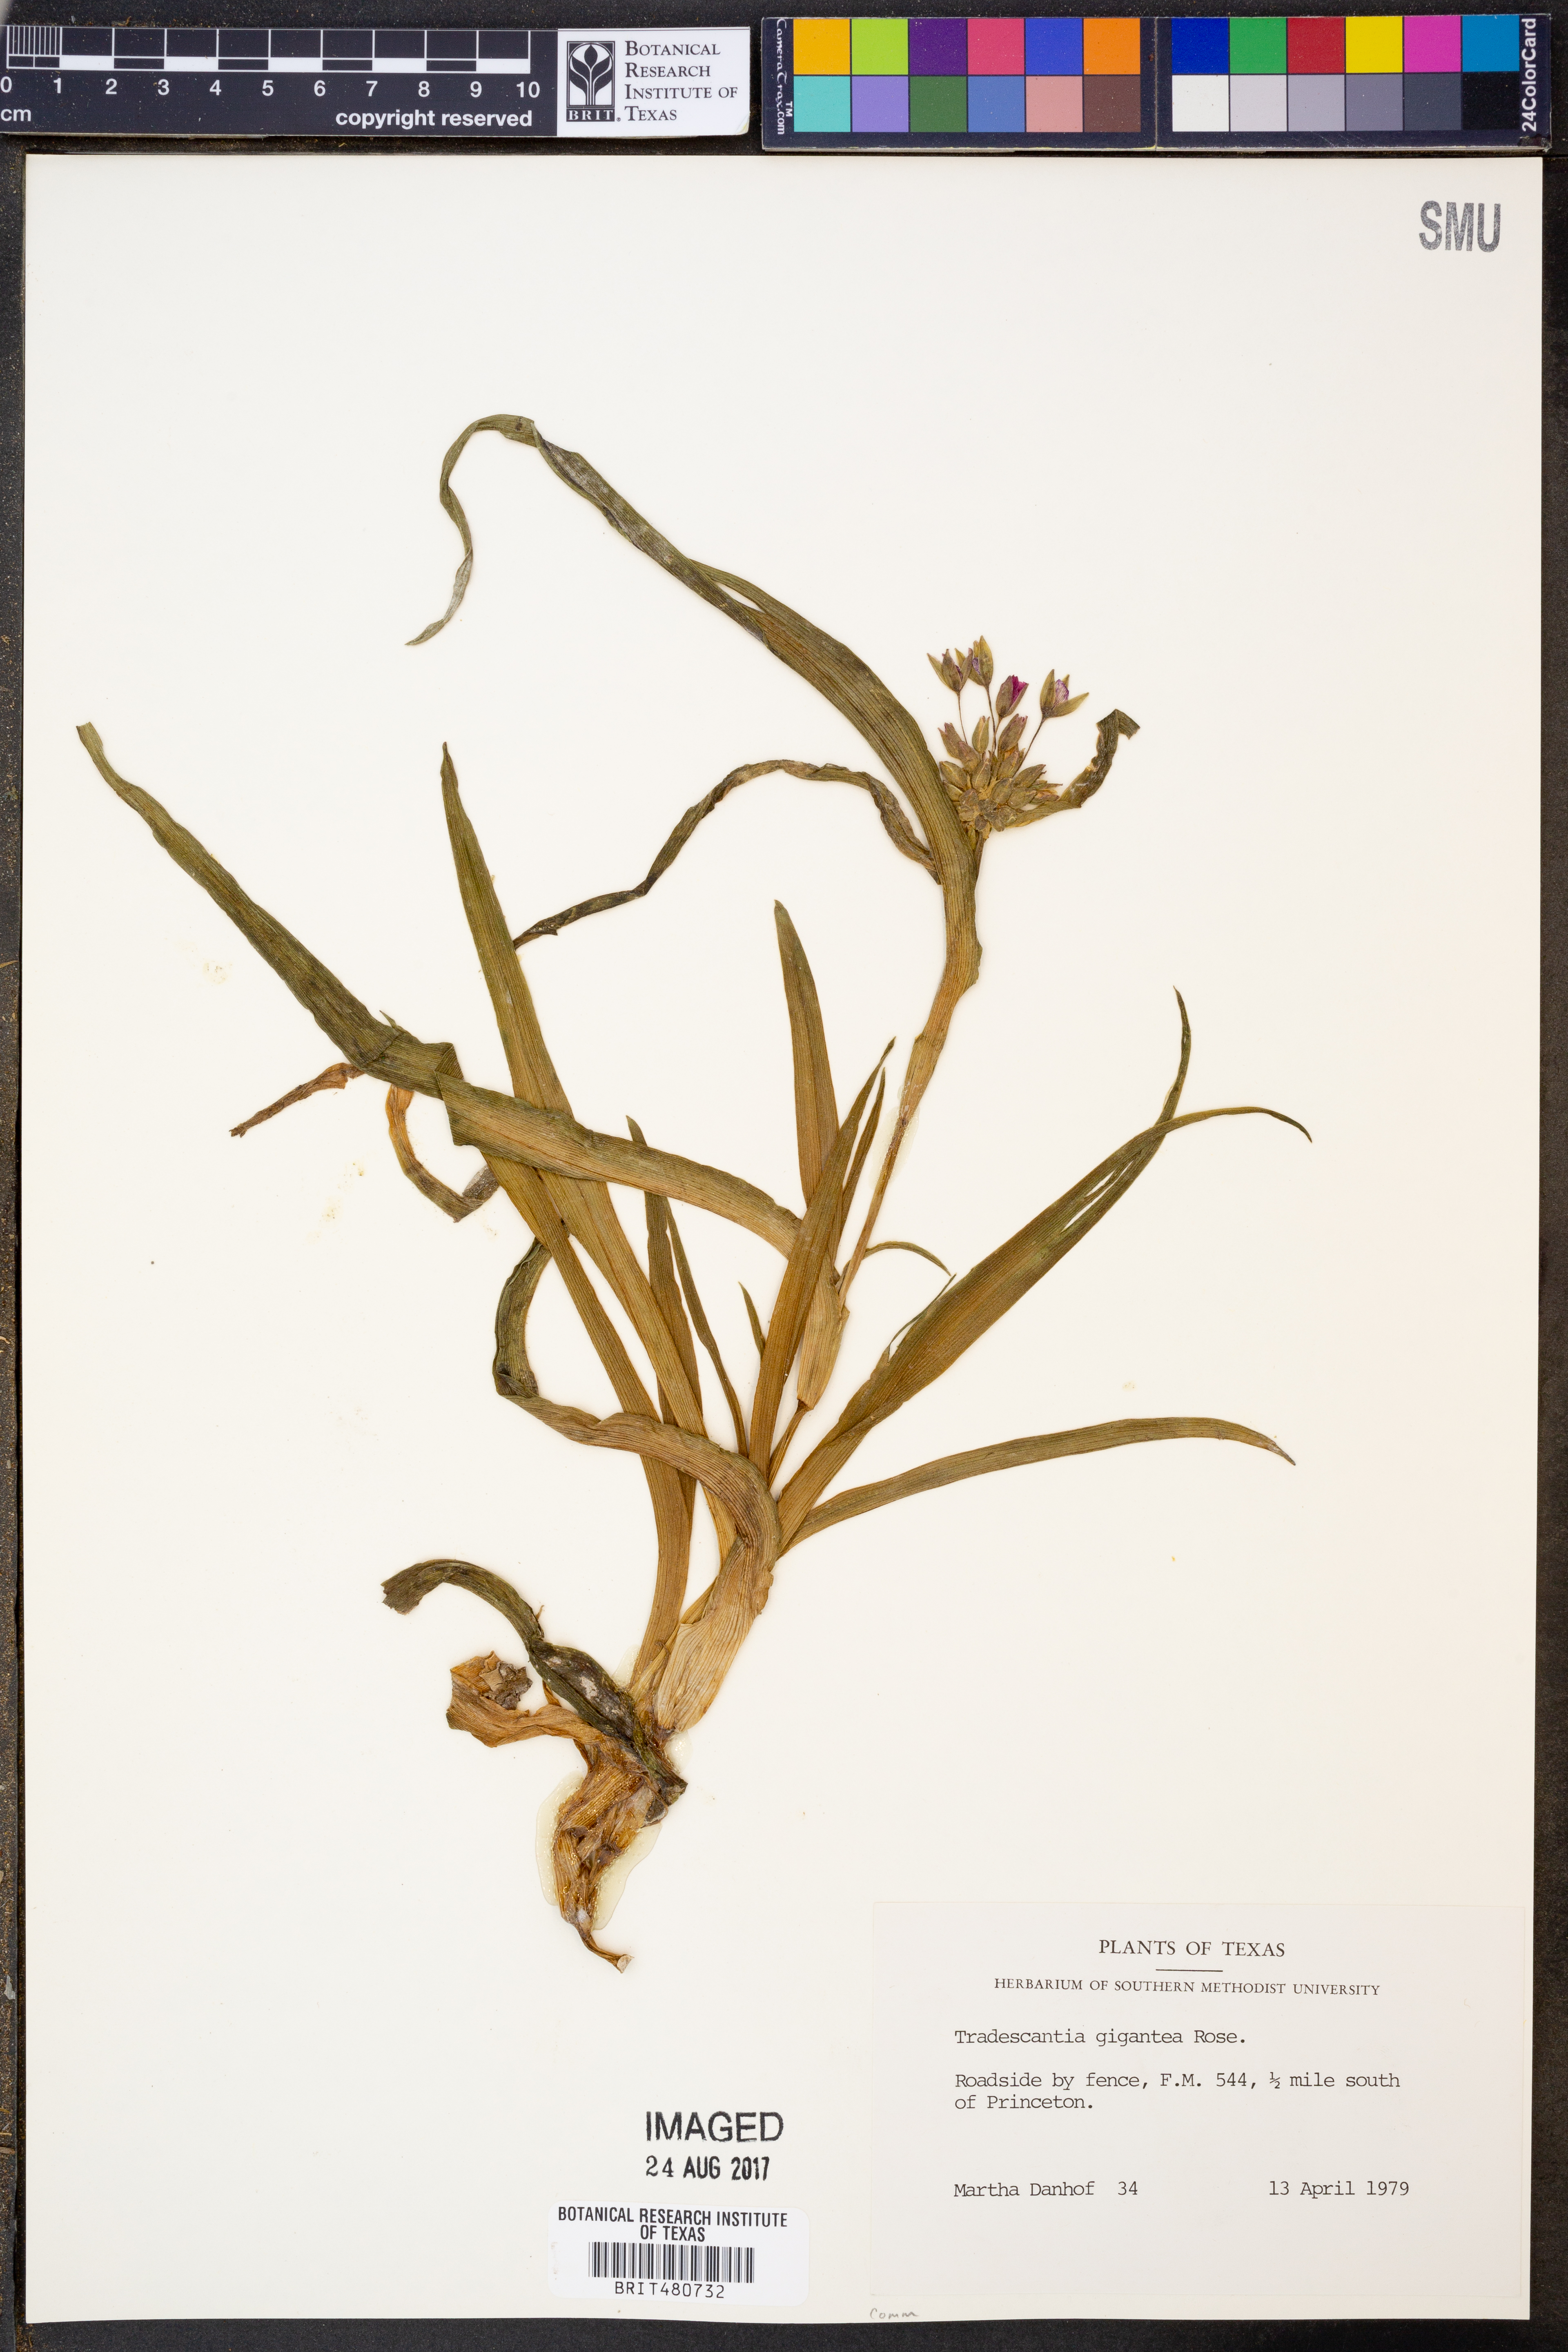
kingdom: Plantae
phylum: Tracheophyta
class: Liliopsida
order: Commelinales
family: Commelinaceae
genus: Tradescantia
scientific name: Tradescantia gigantea
